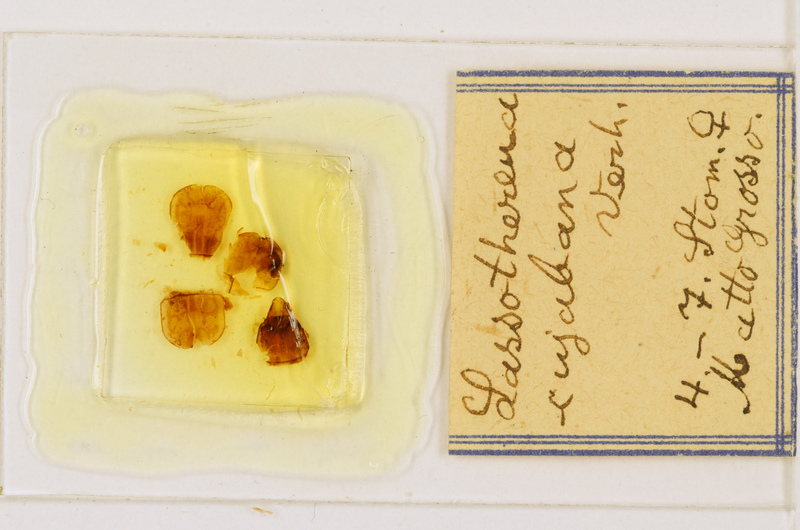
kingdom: Animalia
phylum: Arthropoda
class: Chilopoda
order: Scutigeromorpha
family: Pselliodidae
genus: Sphendononema
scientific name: Sphendononema guildingii
